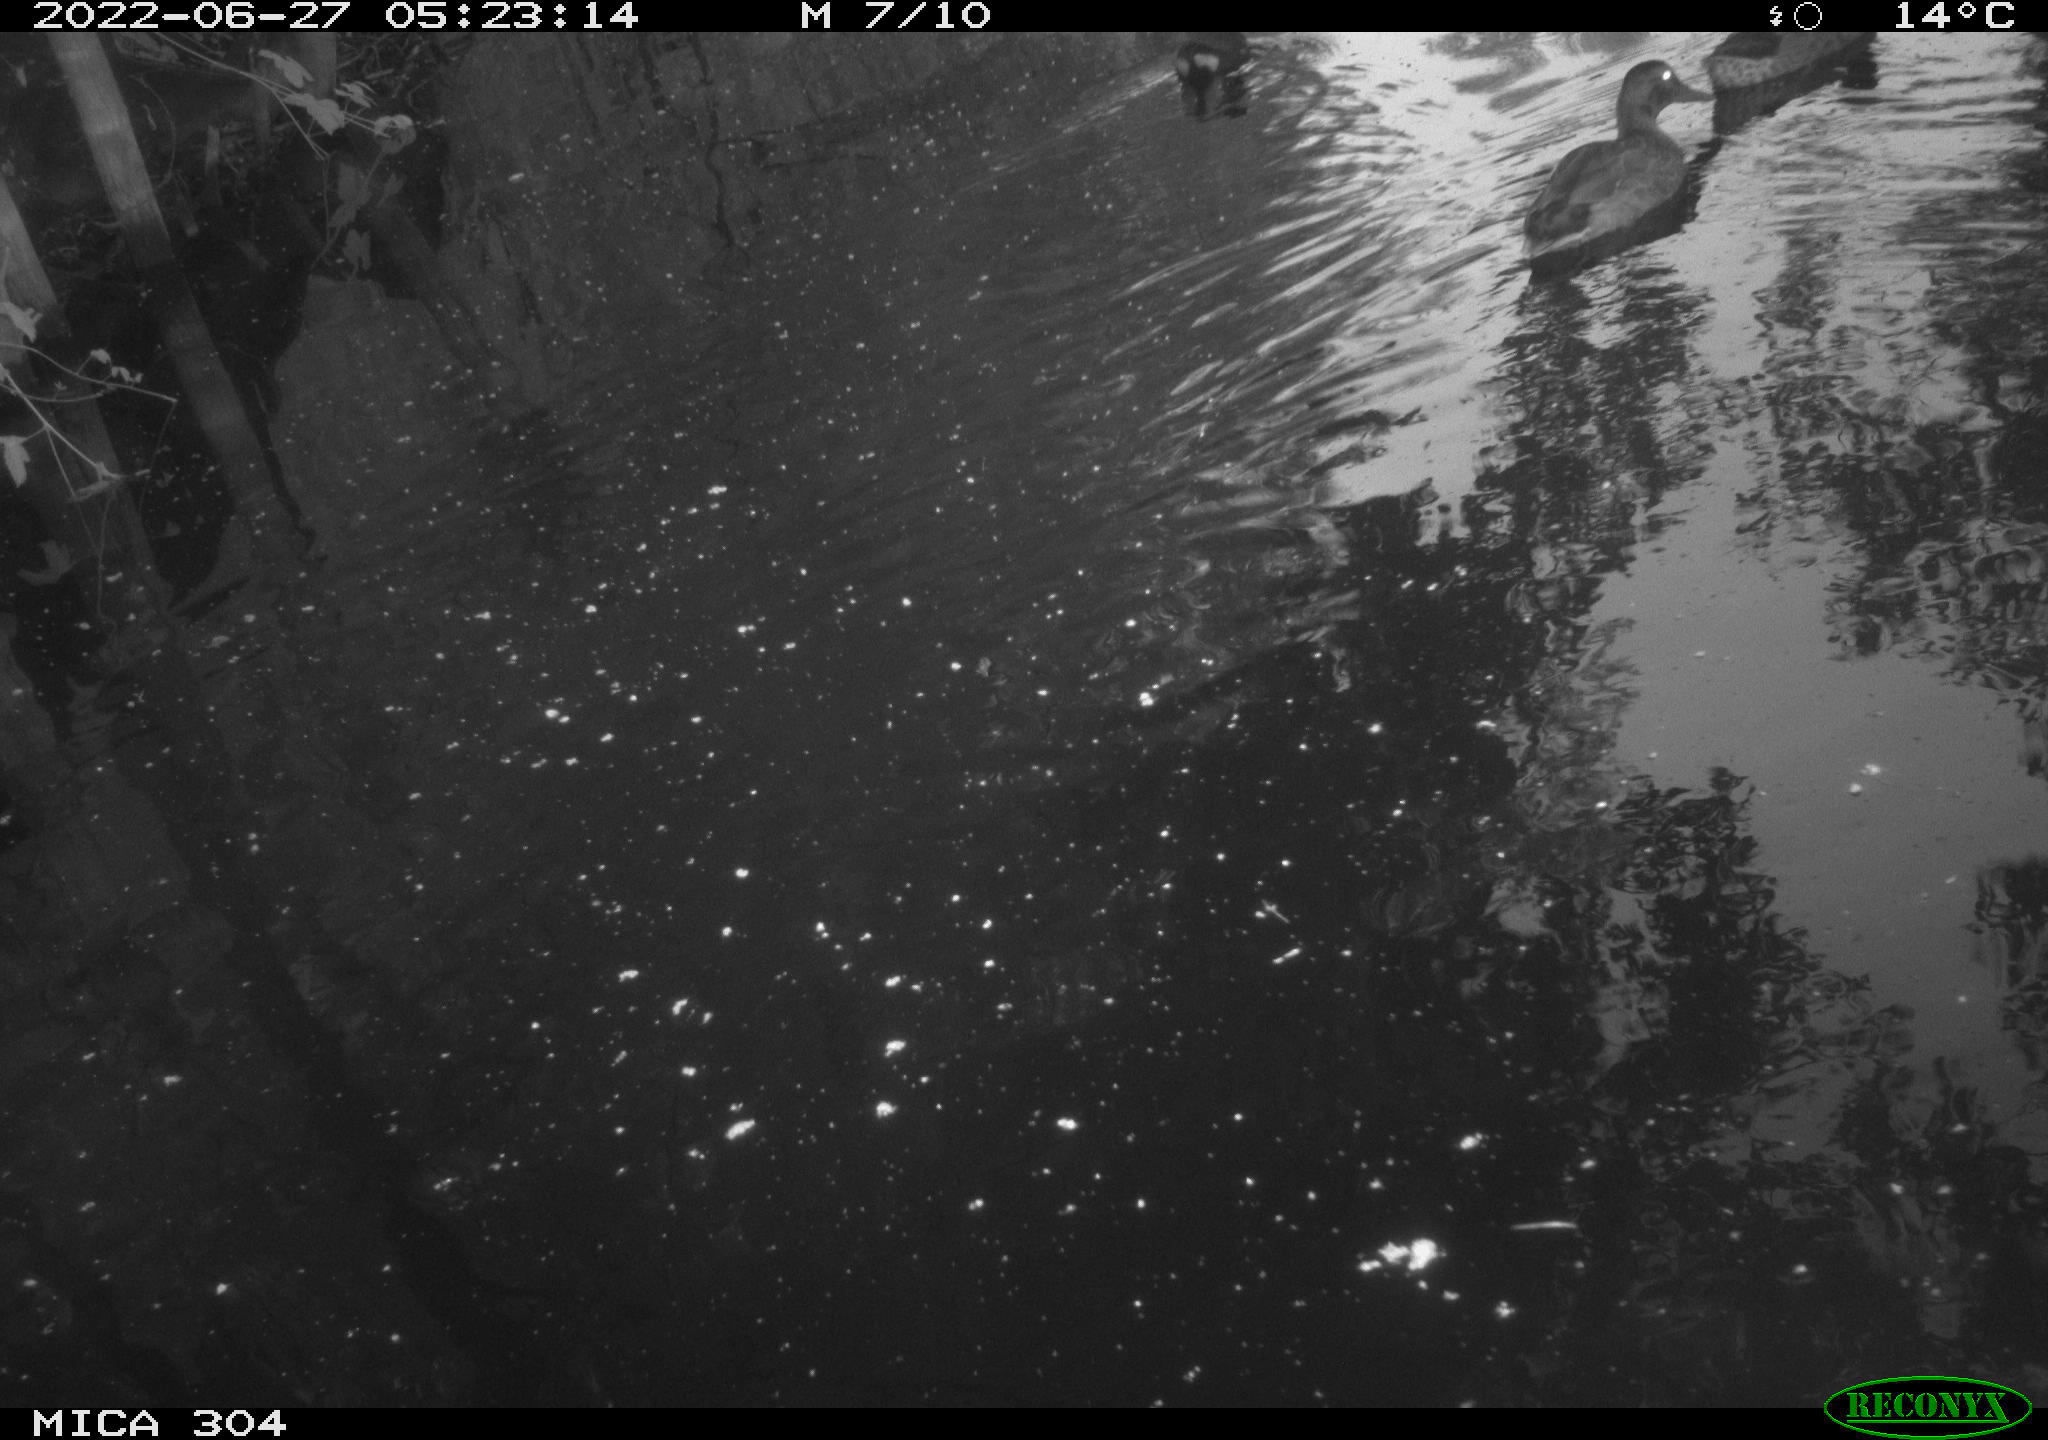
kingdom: Animalia
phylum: Chordata
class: Aves
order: Anseriformes
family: Anatidae
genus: Anas
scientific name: Anas platyrhynchos
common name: Mallard
